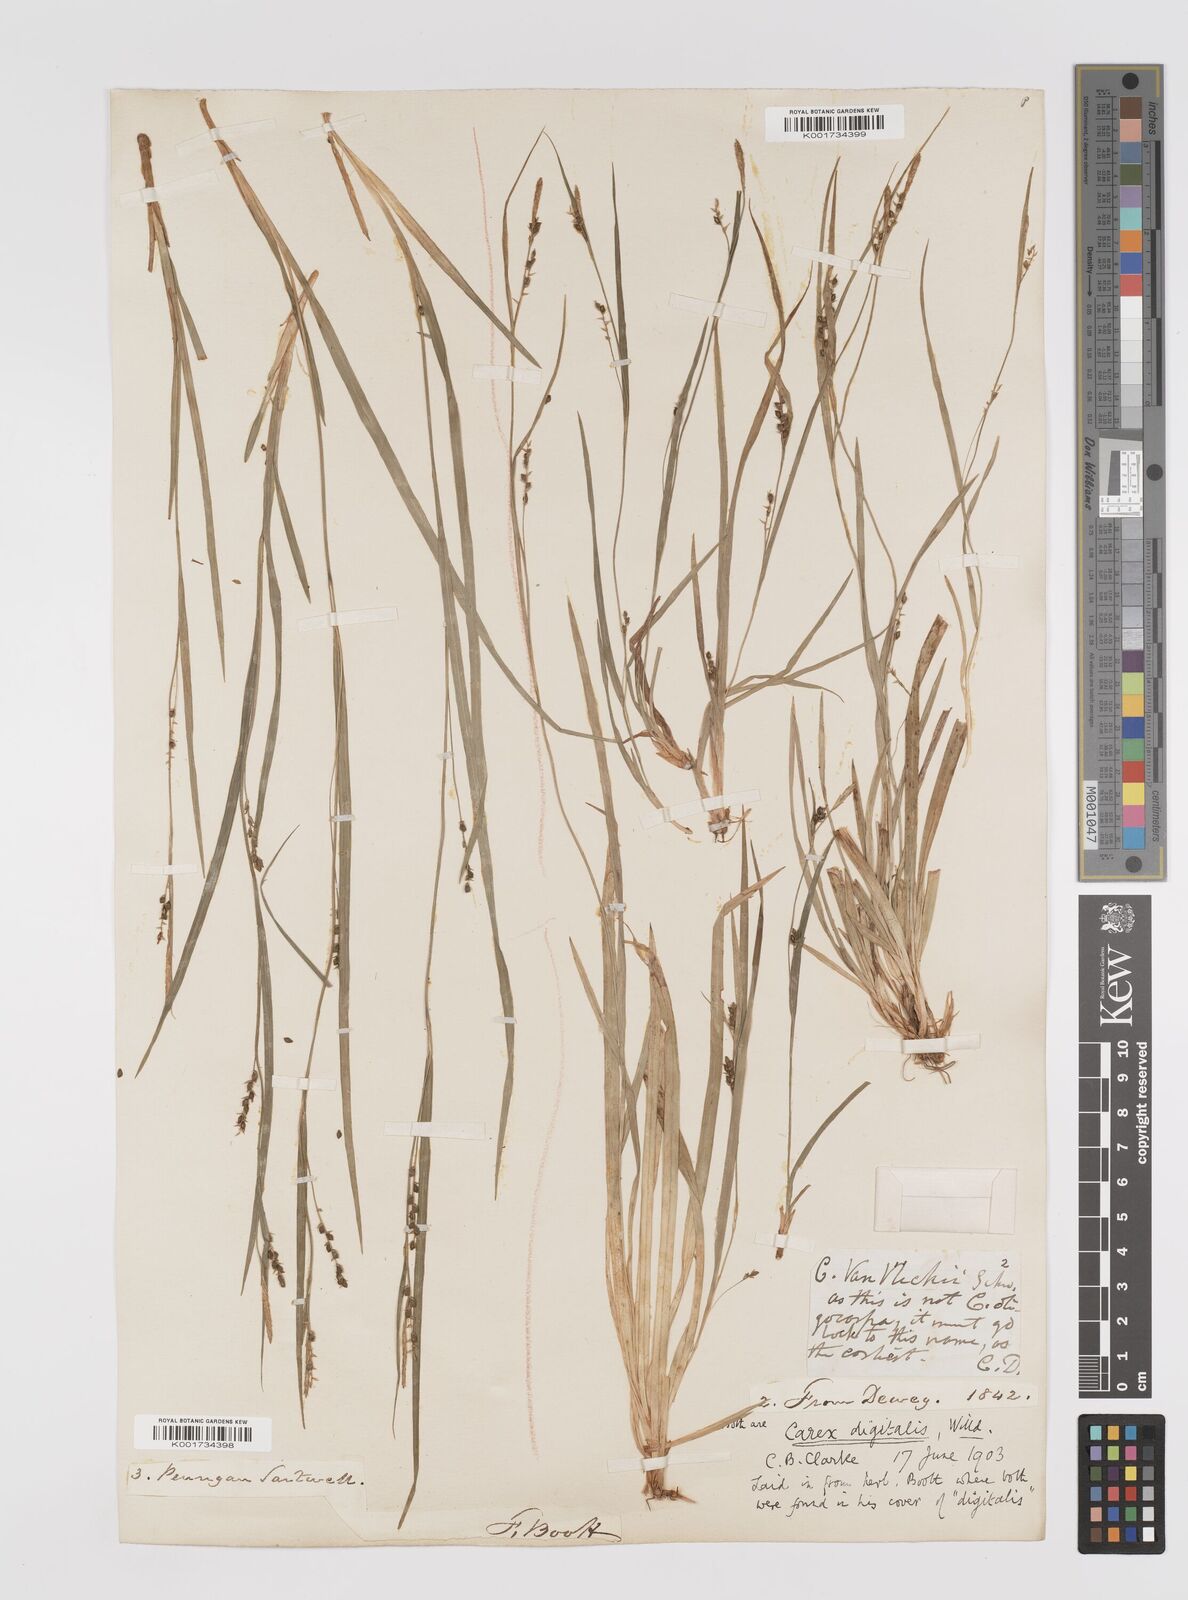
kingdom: Plantae
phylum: Tracheophyta
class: Liliopsida
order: Poales
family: Cyperaceae
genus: Carex
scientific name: Carex digitalis
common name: Slender wood sedge
